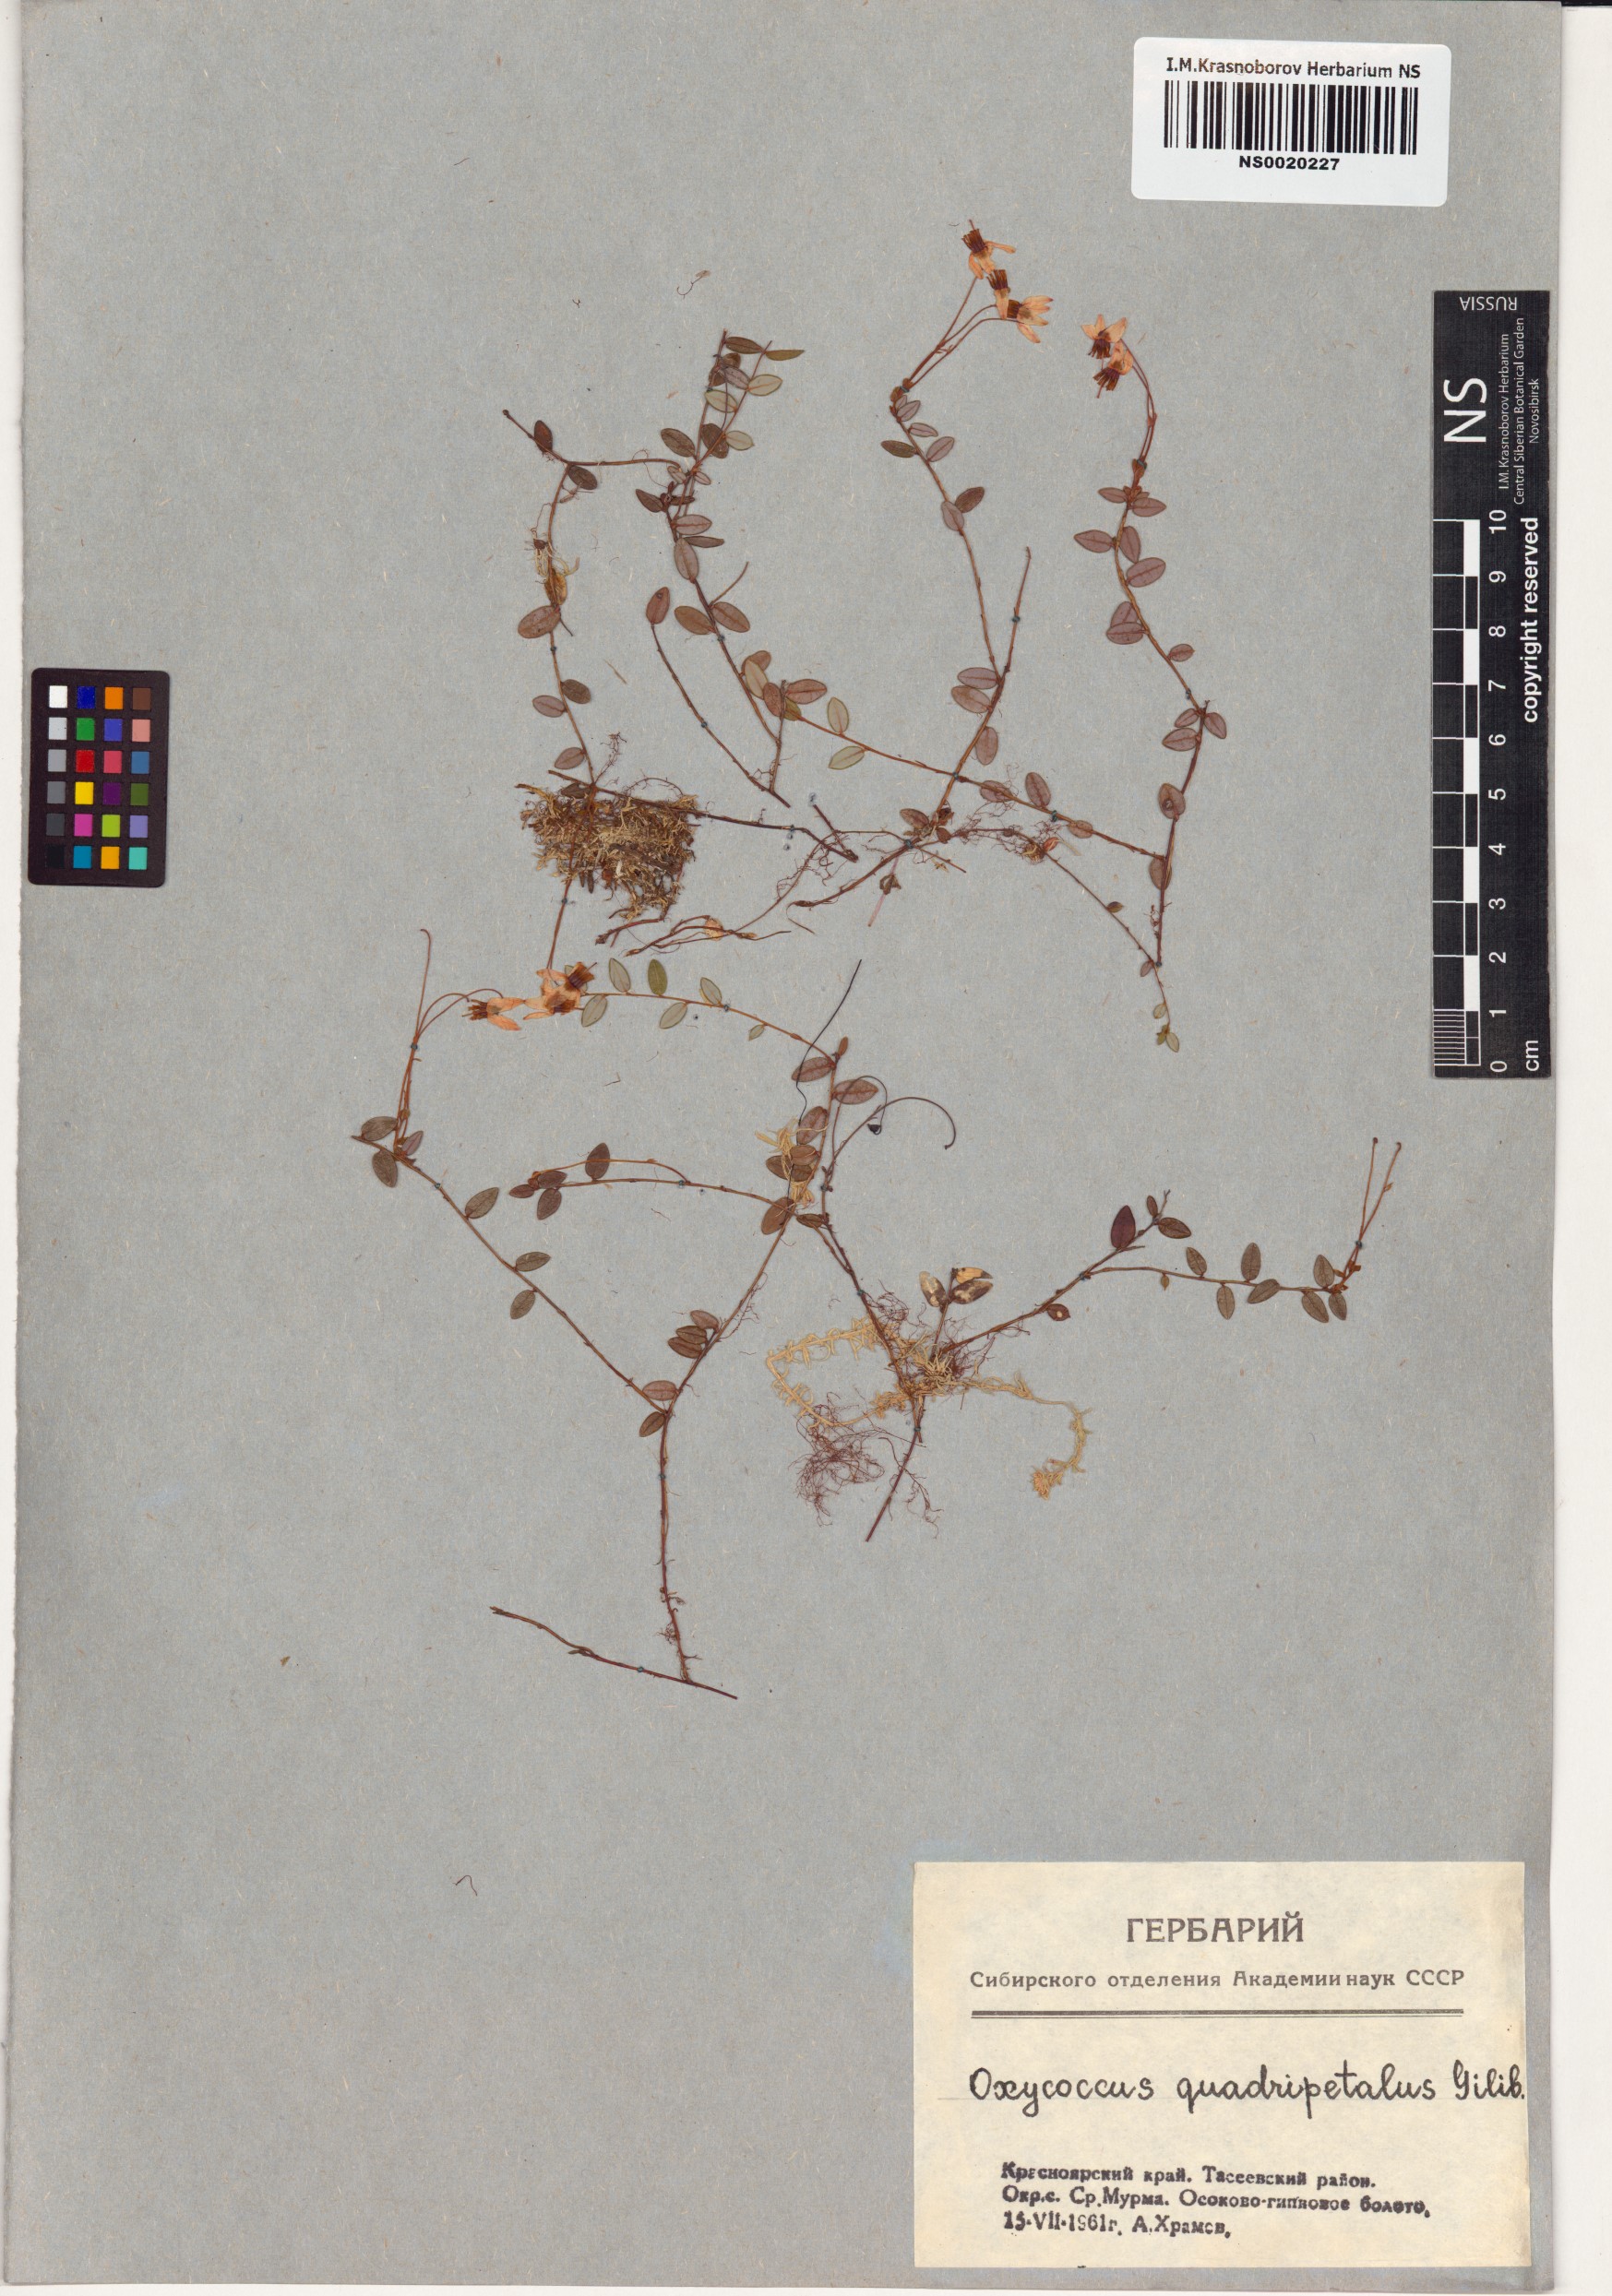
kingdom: Plantae
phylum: Tracheophyta
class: Magnoliopsida
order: Ericales
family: Ericaceae
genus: Vaccinium
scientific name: Vaccinium oxycoccos
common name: Cranberry
